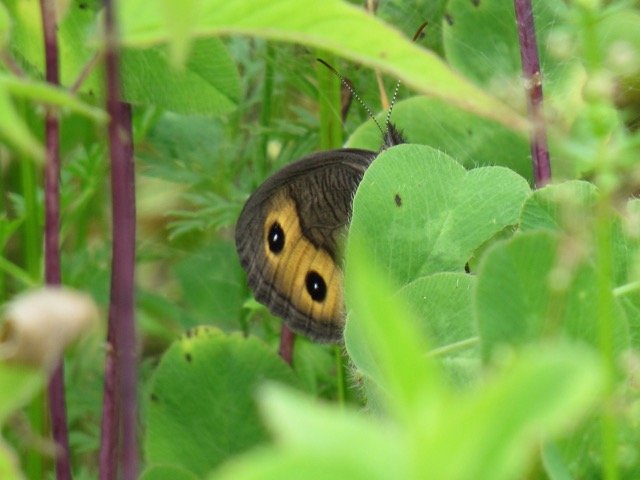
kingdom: Animalia
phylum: Arthropoda
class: Insecta
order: Lepidoptera
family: Nymphalidae
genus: Cercyonis
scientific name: Cercyonis pegala
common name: Common Wood-Nymph
